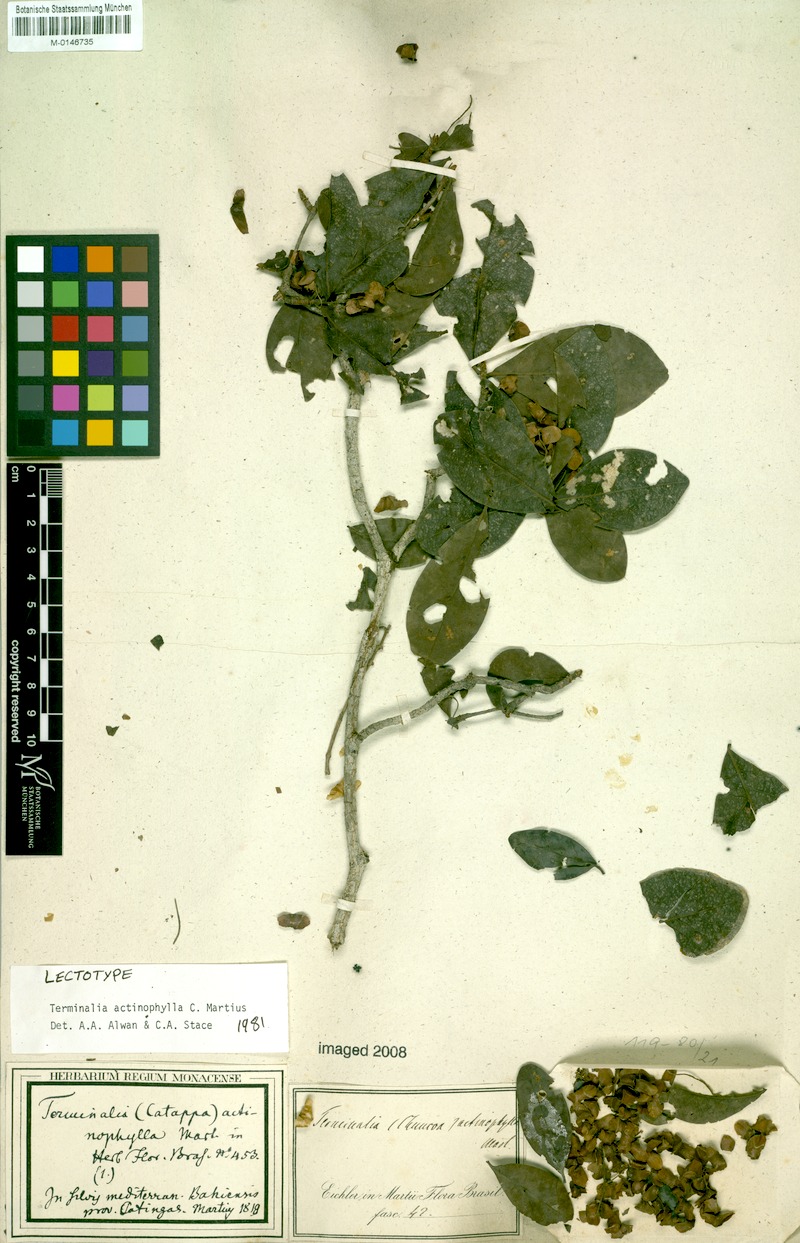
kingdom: Plantae
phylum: Tracheophyta
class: Magnoliopsida
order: Myrtales
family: Combretaceae
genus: Terminalia
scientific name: Terminalia actinophylla
